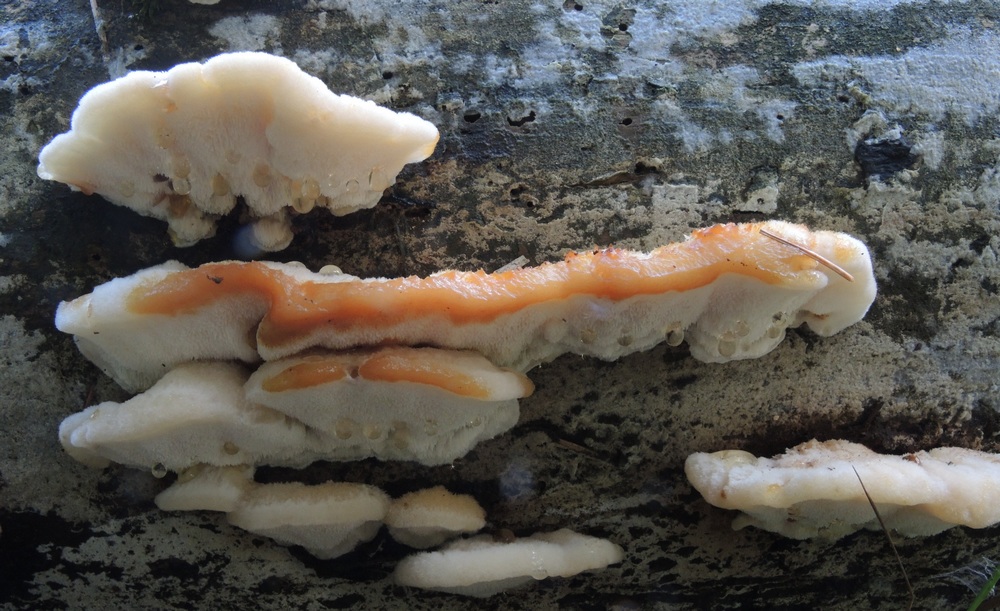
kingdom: Fungi
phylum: Basidiomycota
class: Agaricomycetes
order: Polyporales
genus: Fuscopostia
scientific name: Fuscopostia fragilis
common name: brunende kødporesvamp
